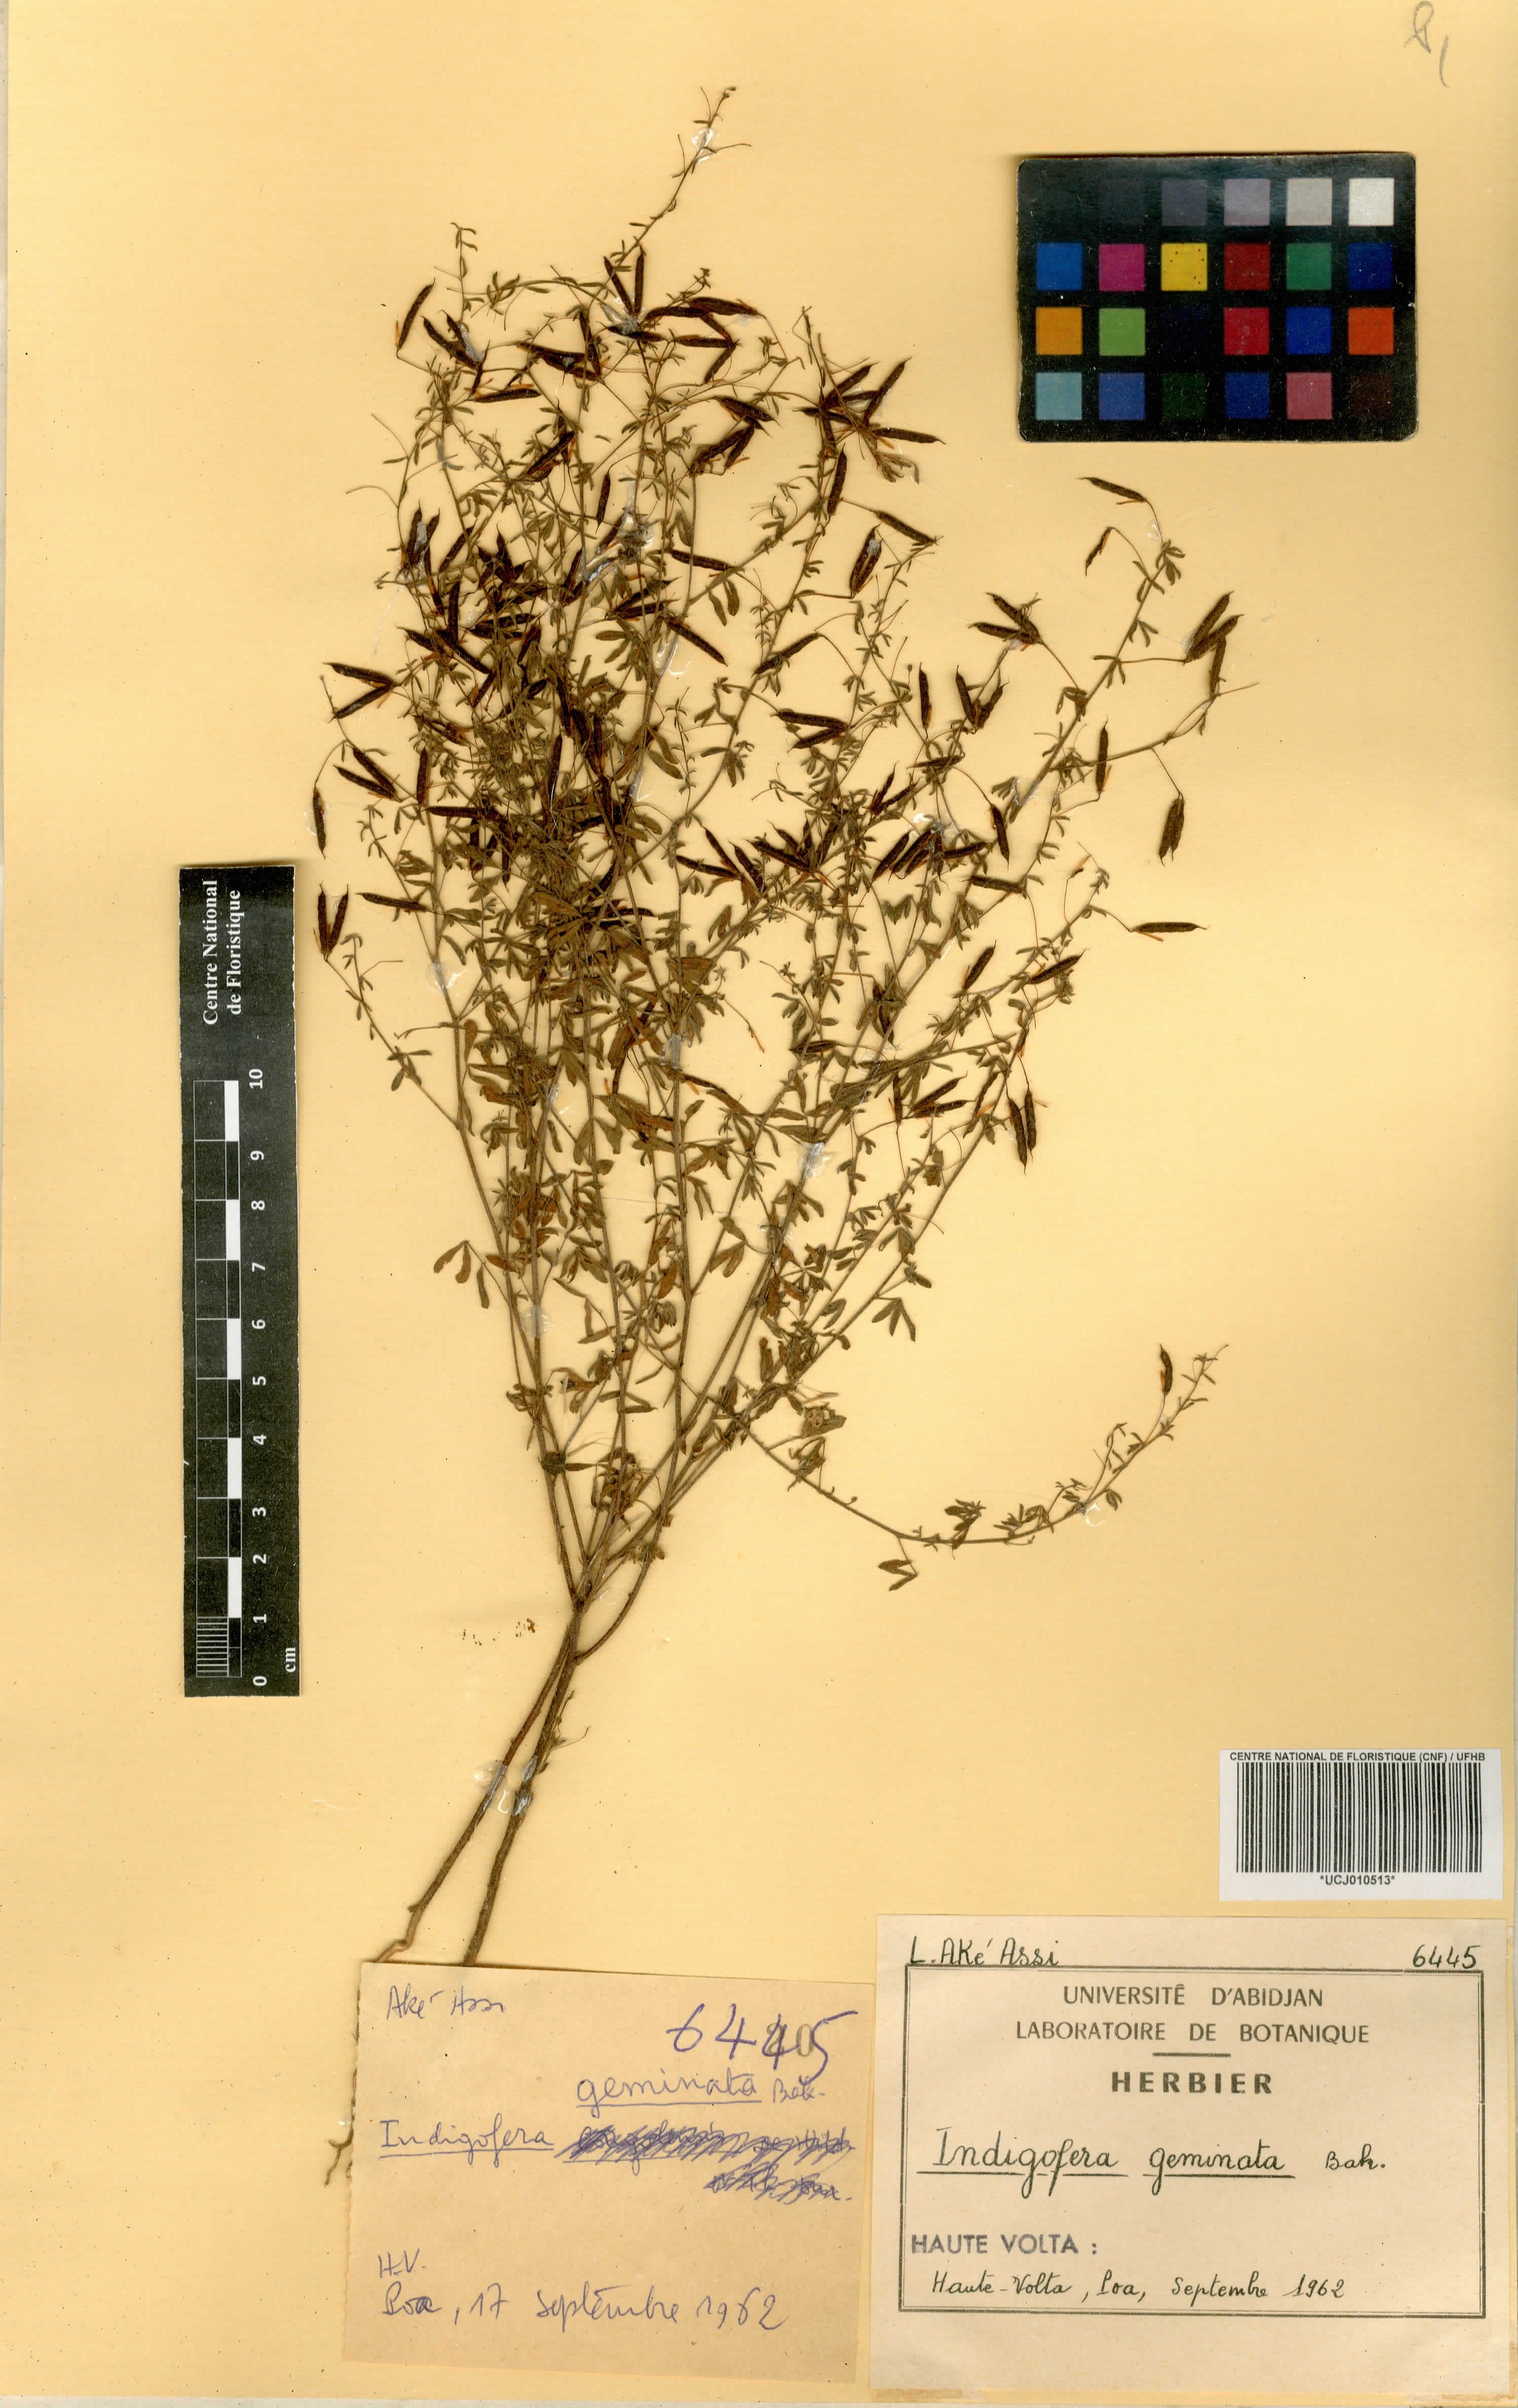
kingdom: Plantae
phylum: Tracheophyta
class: Magnoliopsida
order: Fabales
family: Fabaceae
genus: Indigofera
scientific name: Indigofera geminata
